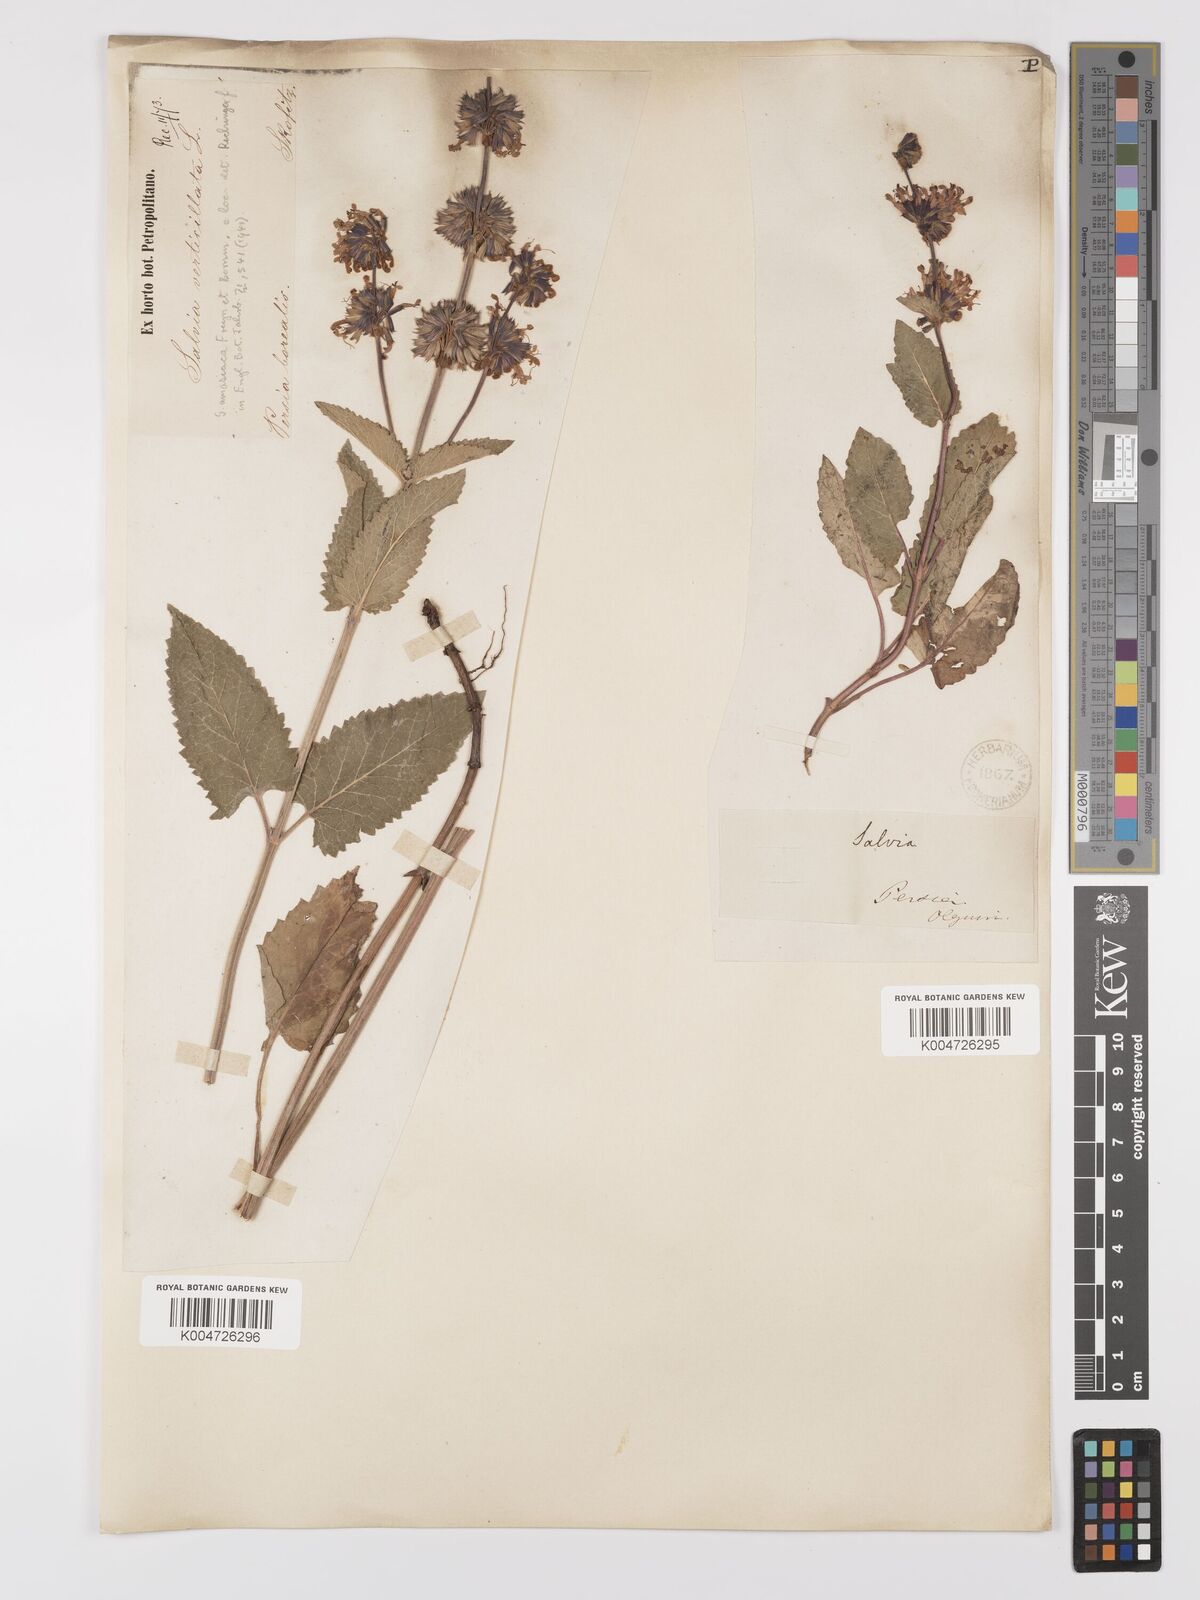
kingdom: Plantae
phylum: Tracheophyta
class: Magnoliopsida
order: Lamiales
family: Lamiaceae
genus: Salvia
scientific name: Salvia verticillata
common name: Whorled clary
